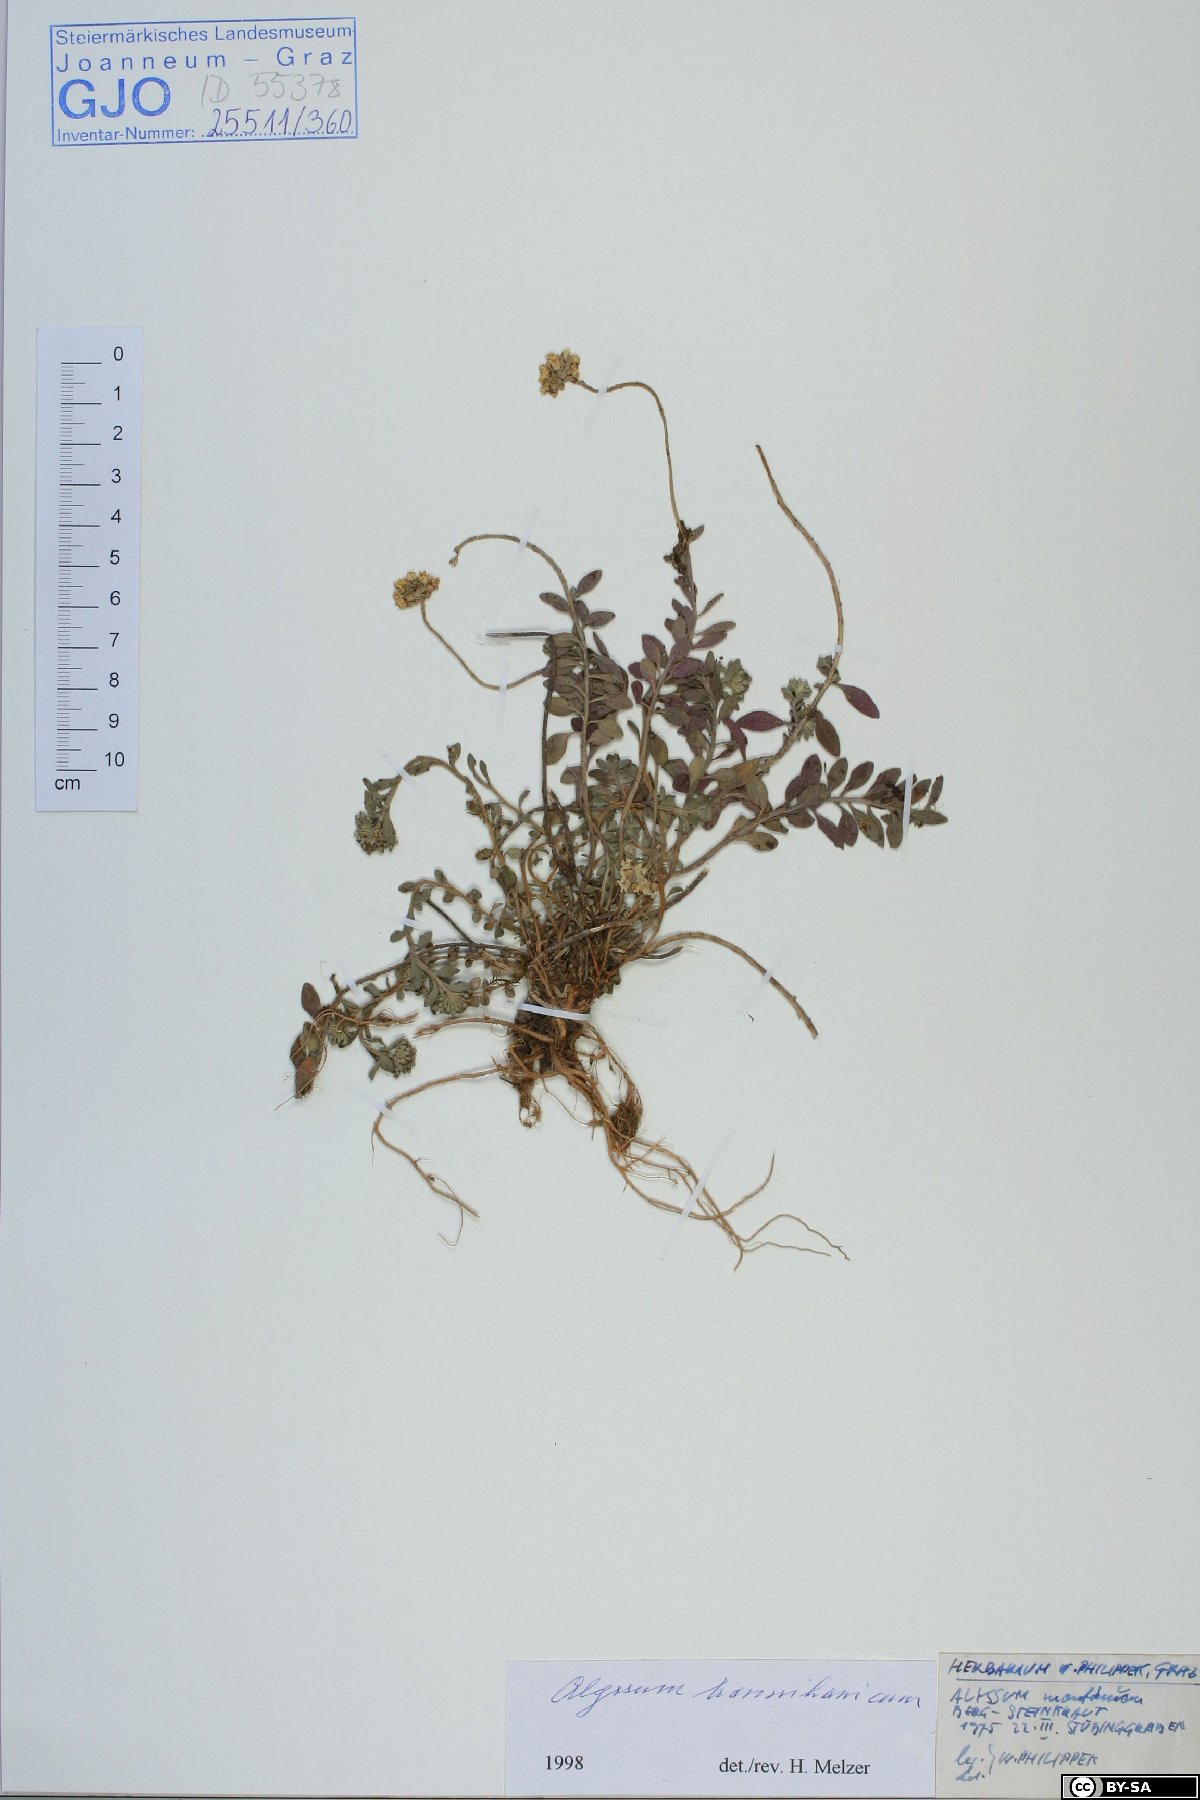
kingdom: Plantae
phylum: Tracheophyta
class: Magnoliopsida
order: Brassicales
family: Brassicaceae
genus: Alyssum
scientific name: Alyssum repens
